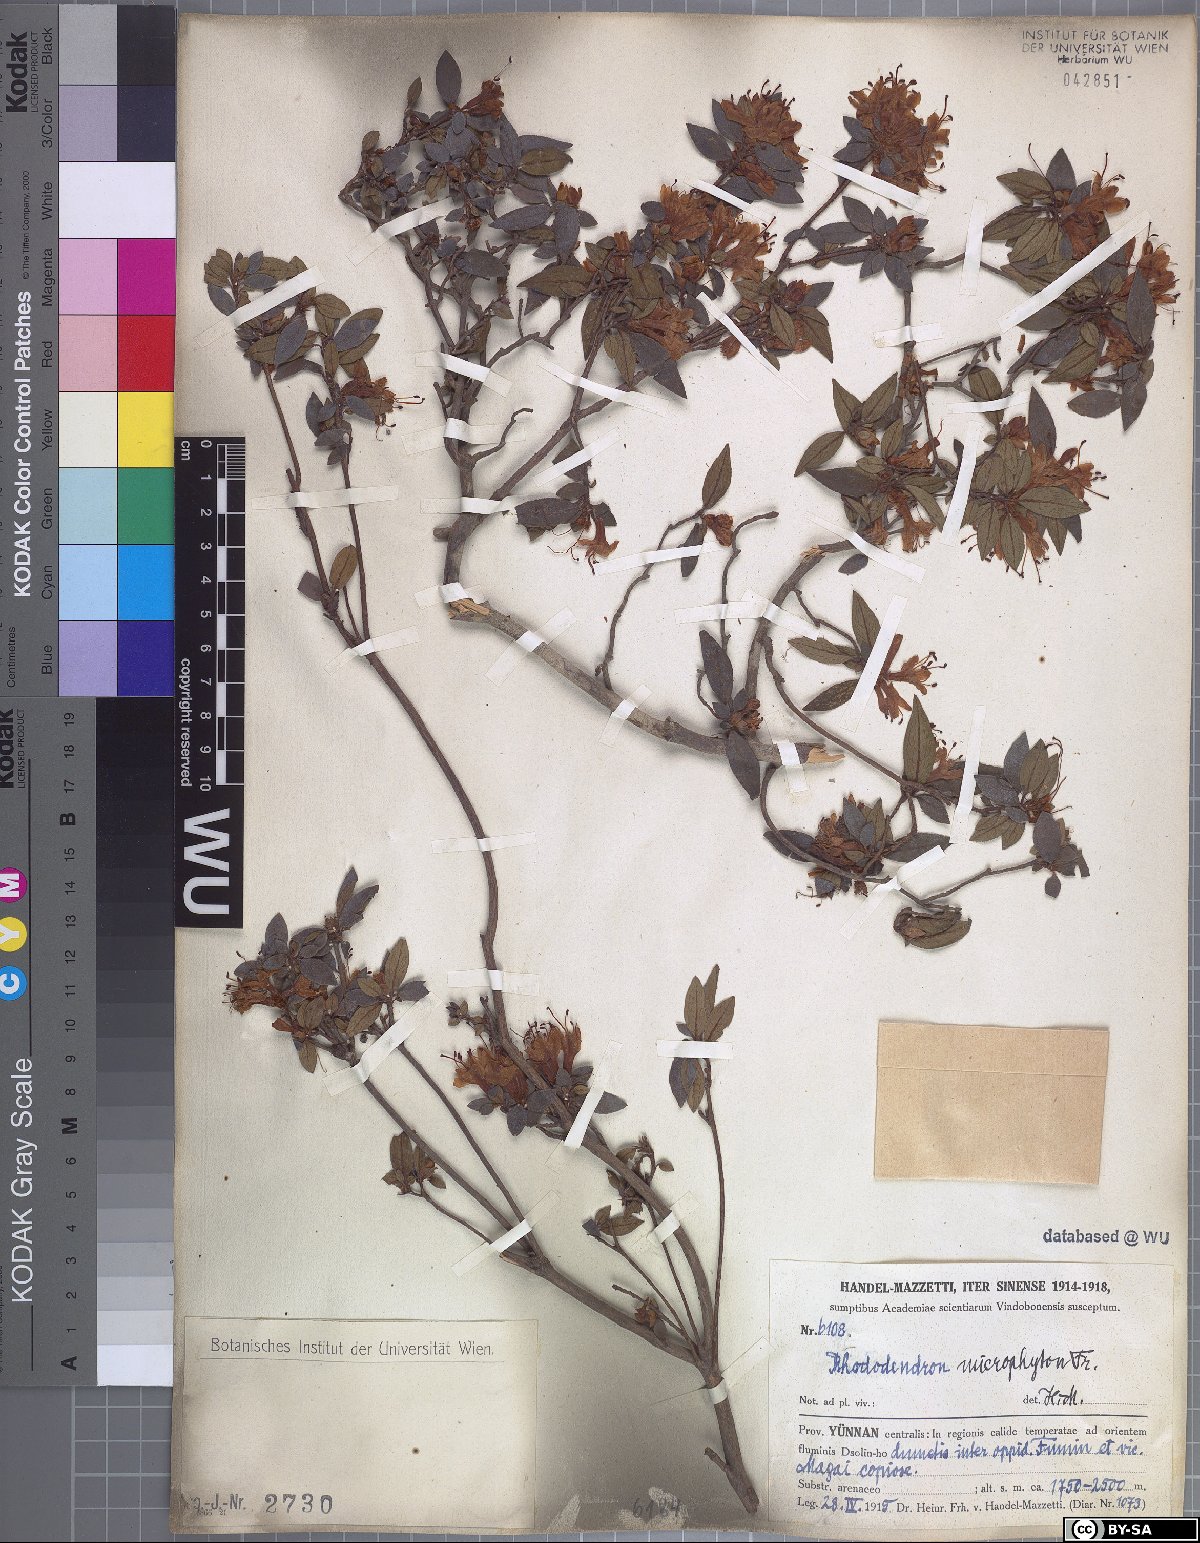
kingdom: Plantae
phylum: Tracheophyta
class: Magnoliopsida
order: Ericales
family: Ericaceae
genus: Rhododendron
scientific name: Rhododendron microphyton
